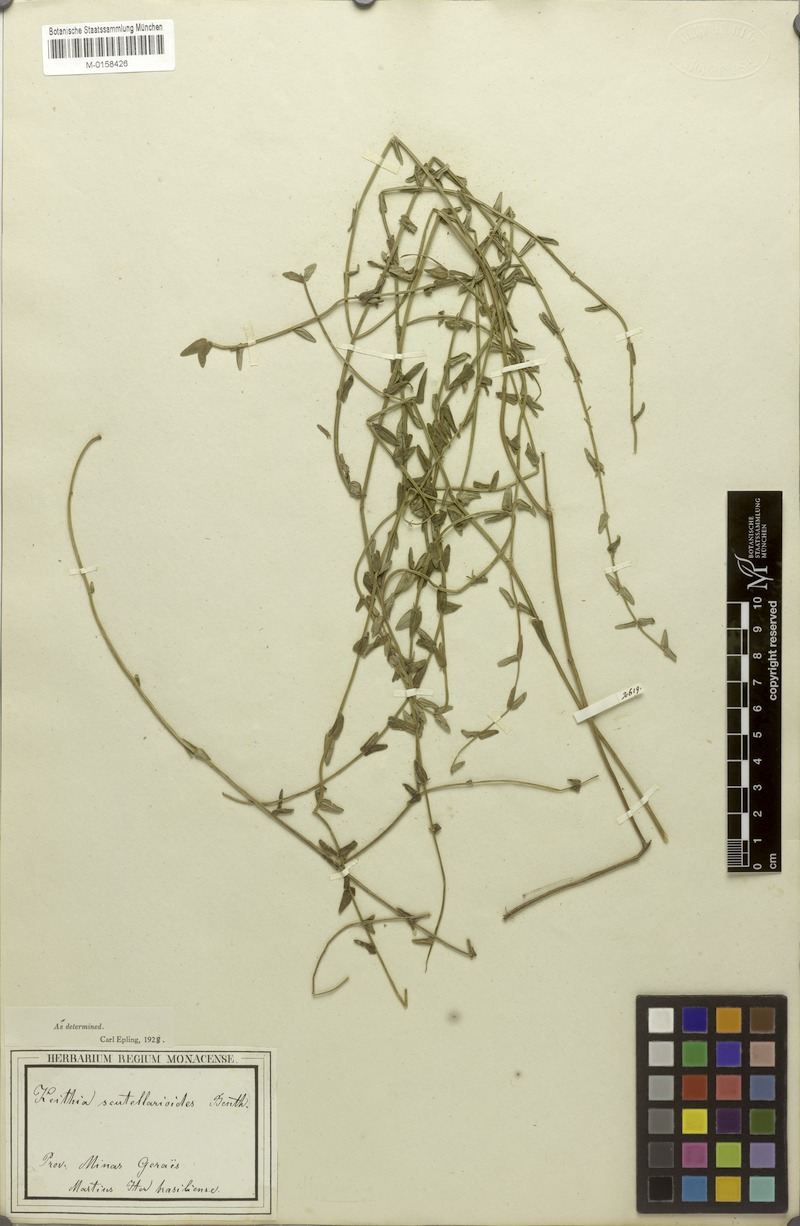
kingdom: Plantae
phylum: Tracheophyta
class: Magnoliopsida
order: Lamiales
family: Lamiaceae
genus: Hoehnea
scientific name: Hoehnea scutellarioides
